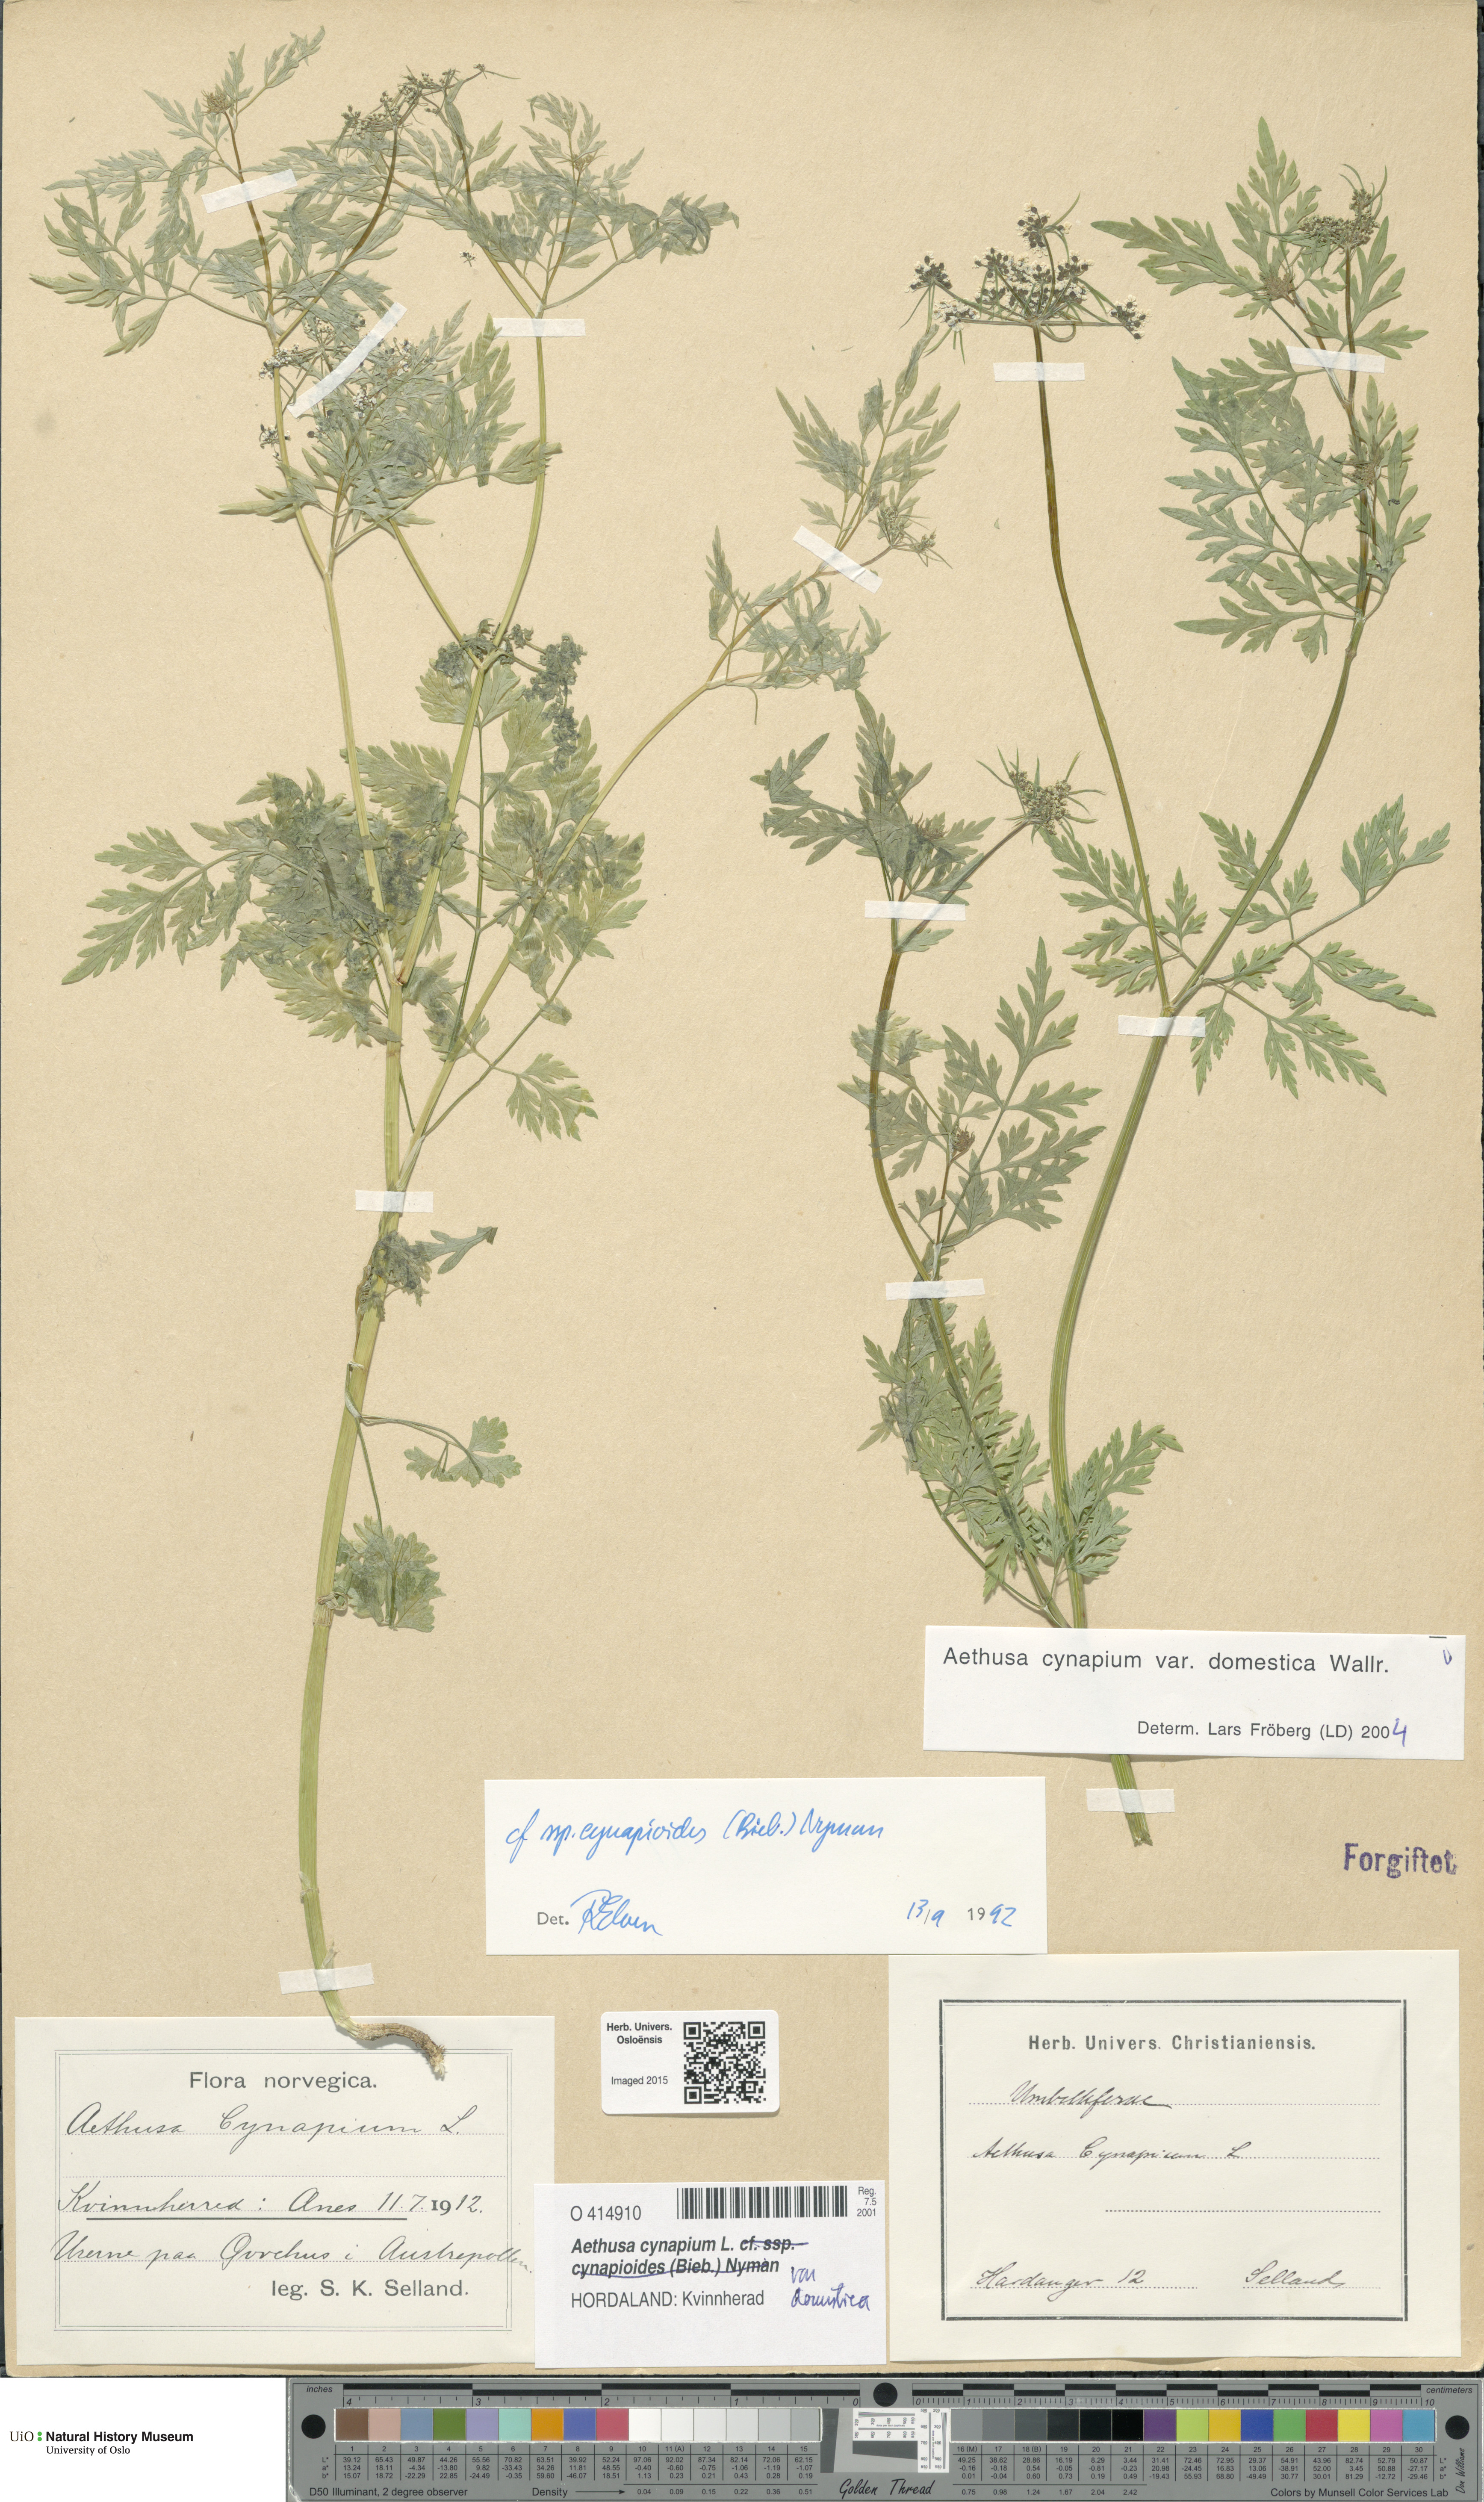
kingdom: Plantae
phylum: Tracheophyta
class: Magnoliopsida
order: Apiales
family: Apiaceae
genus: Aethusa
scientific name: Aethusa cynapium
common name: Fool's parsley
